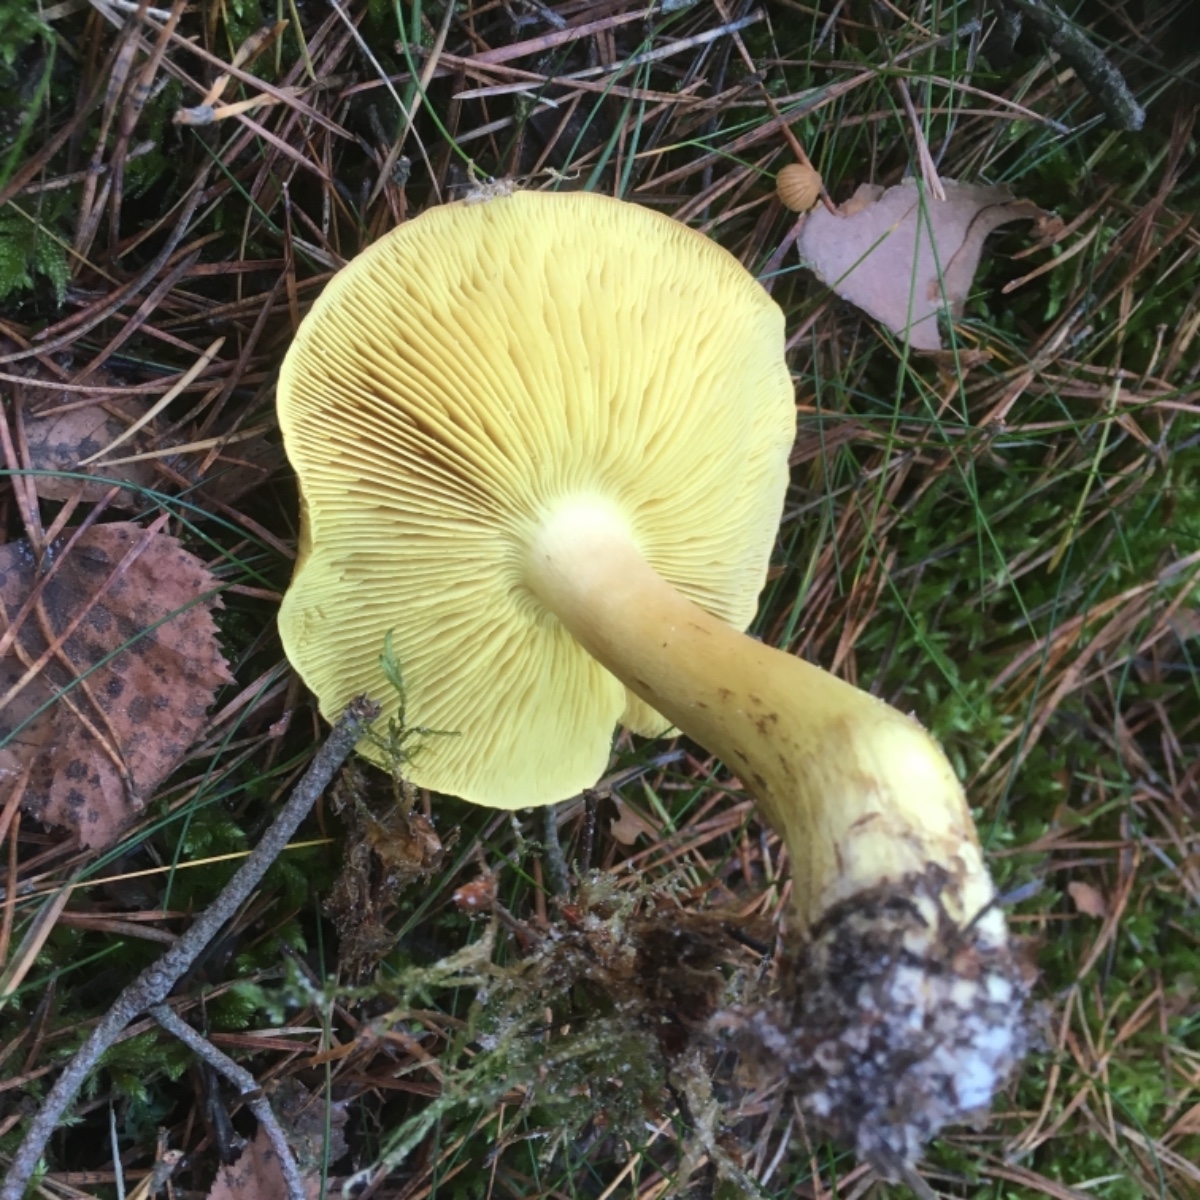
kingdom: Fungi
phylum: Basidiomycota
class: Agaricomycetes
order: Agaricales
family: Tricholomataceae
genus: Tricholoma
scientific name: Tricholoma equestre
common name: ægte ridderhat
